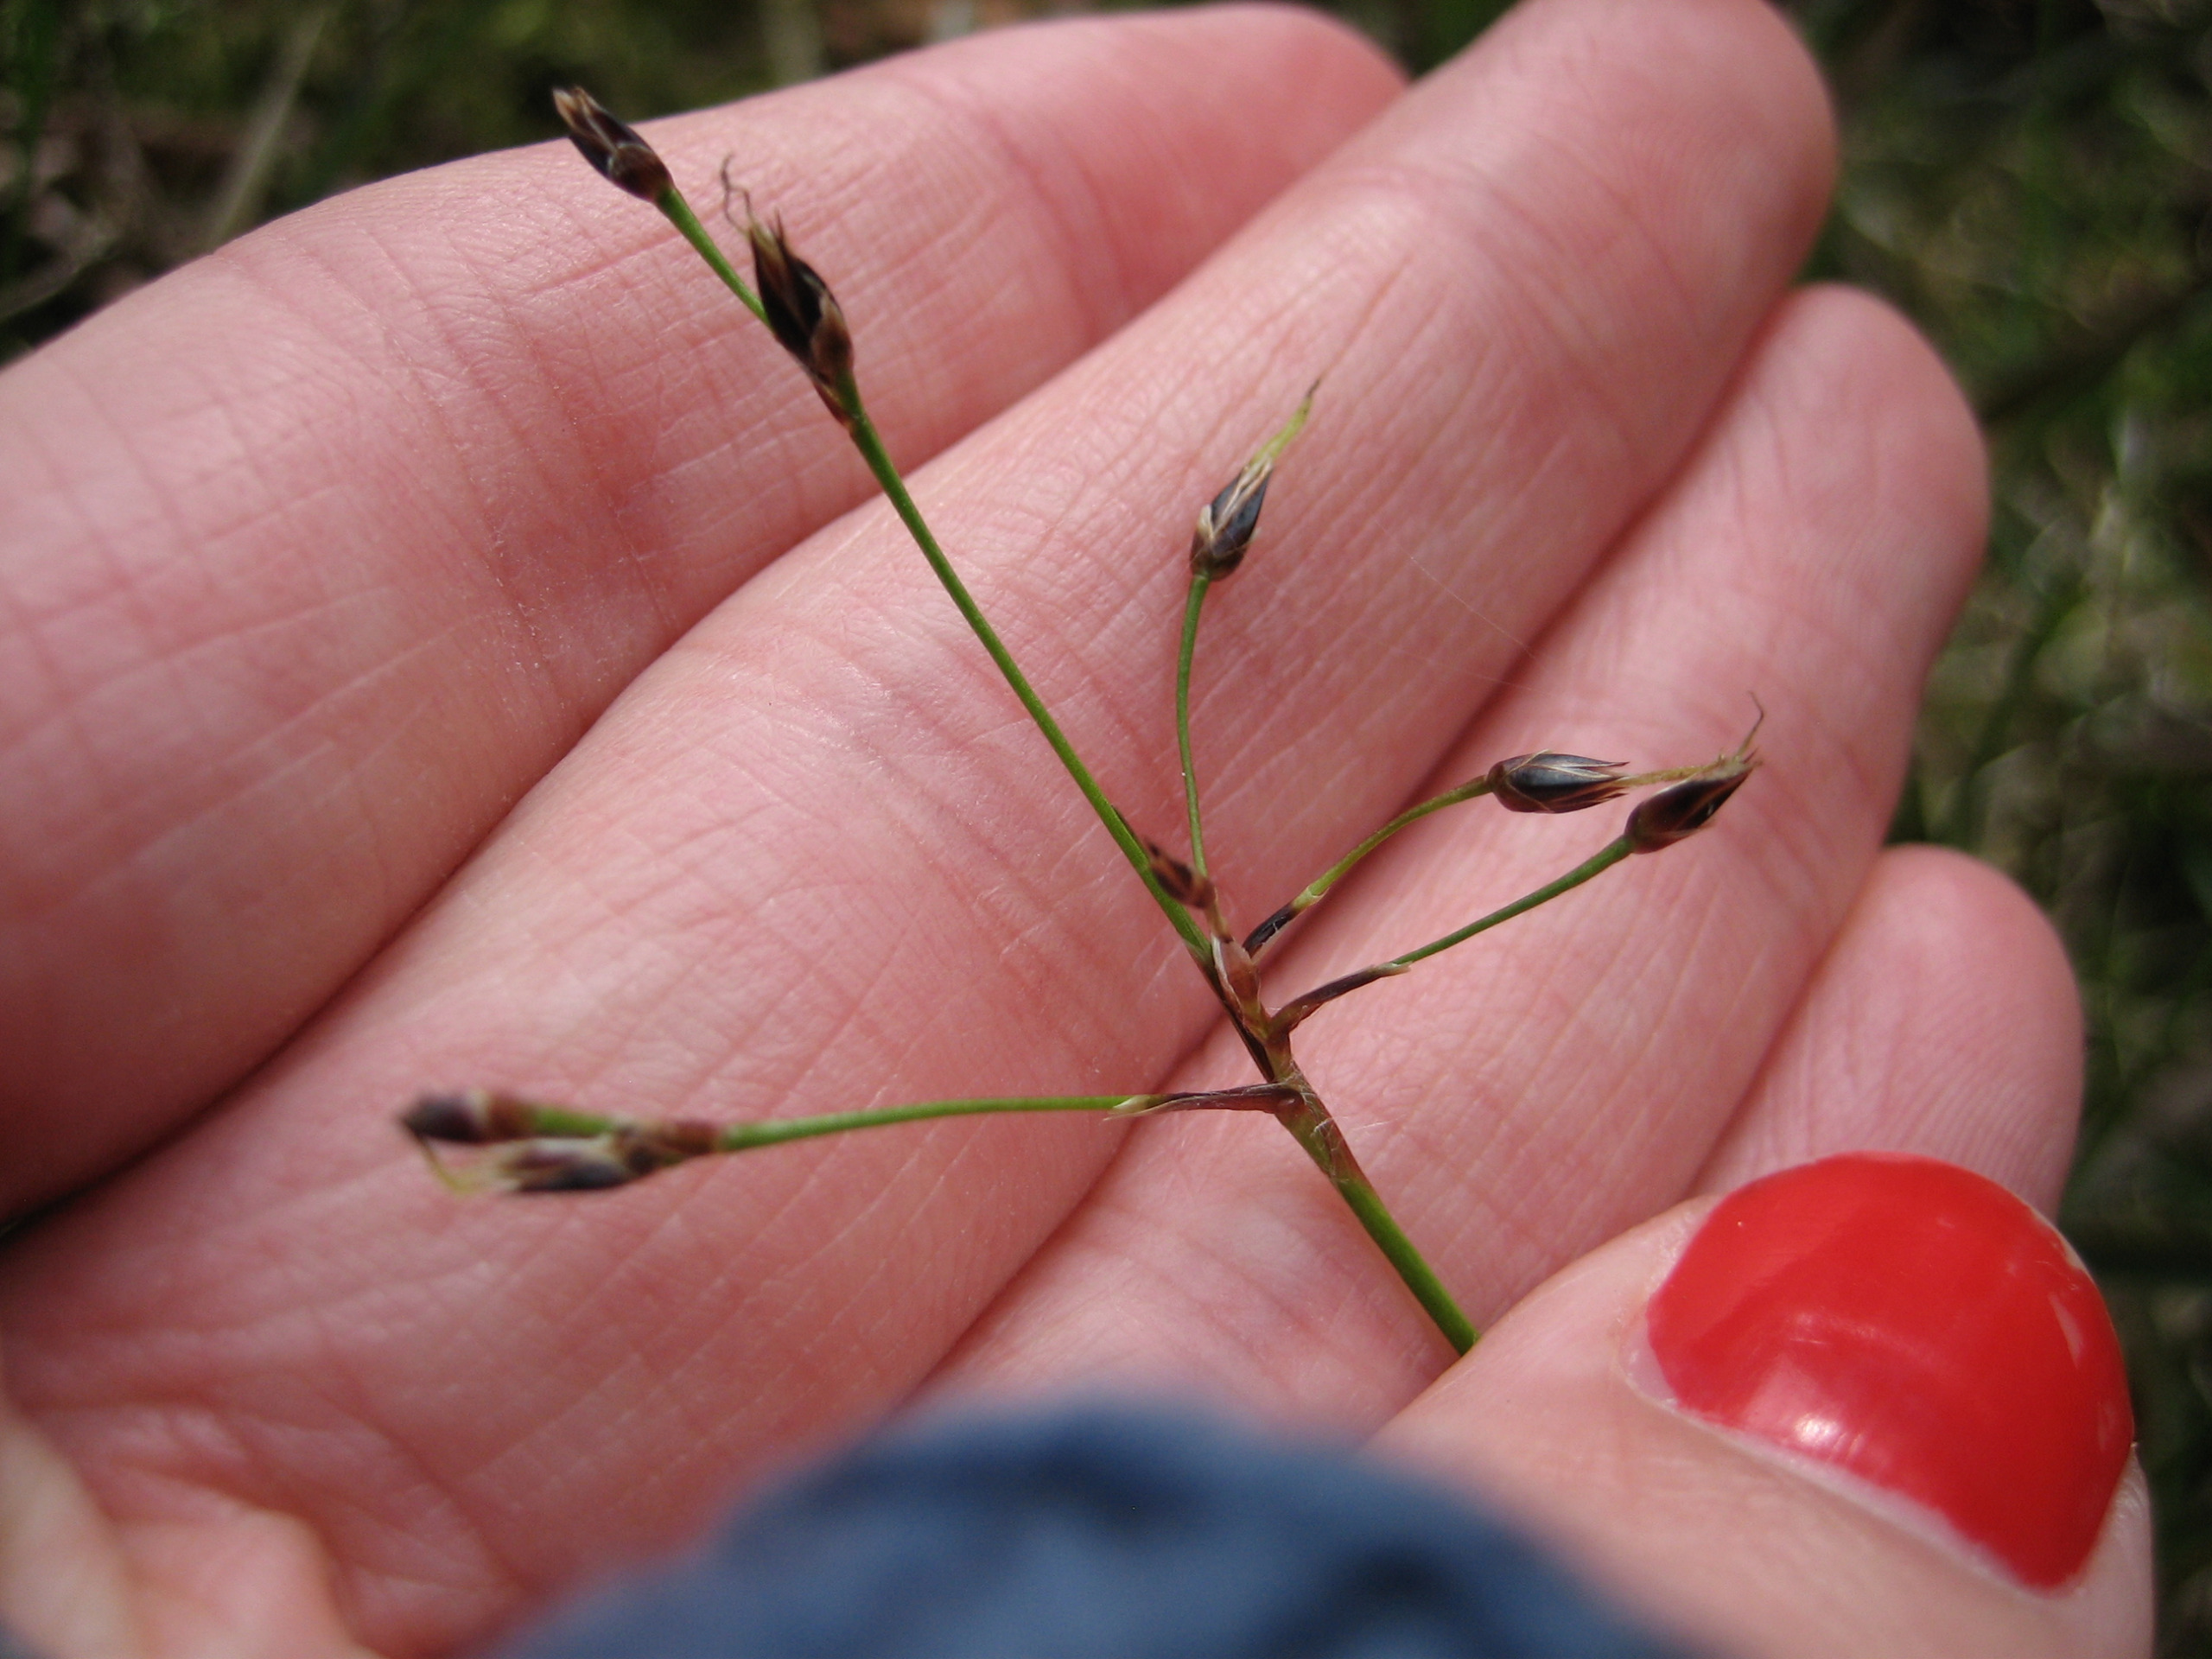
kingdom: Plantae
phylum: Tracheophyta
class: Liliopsida
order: Poales
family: Juncaceae
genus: Luzula
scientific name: Luzula pilosa
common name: Håret frytle
